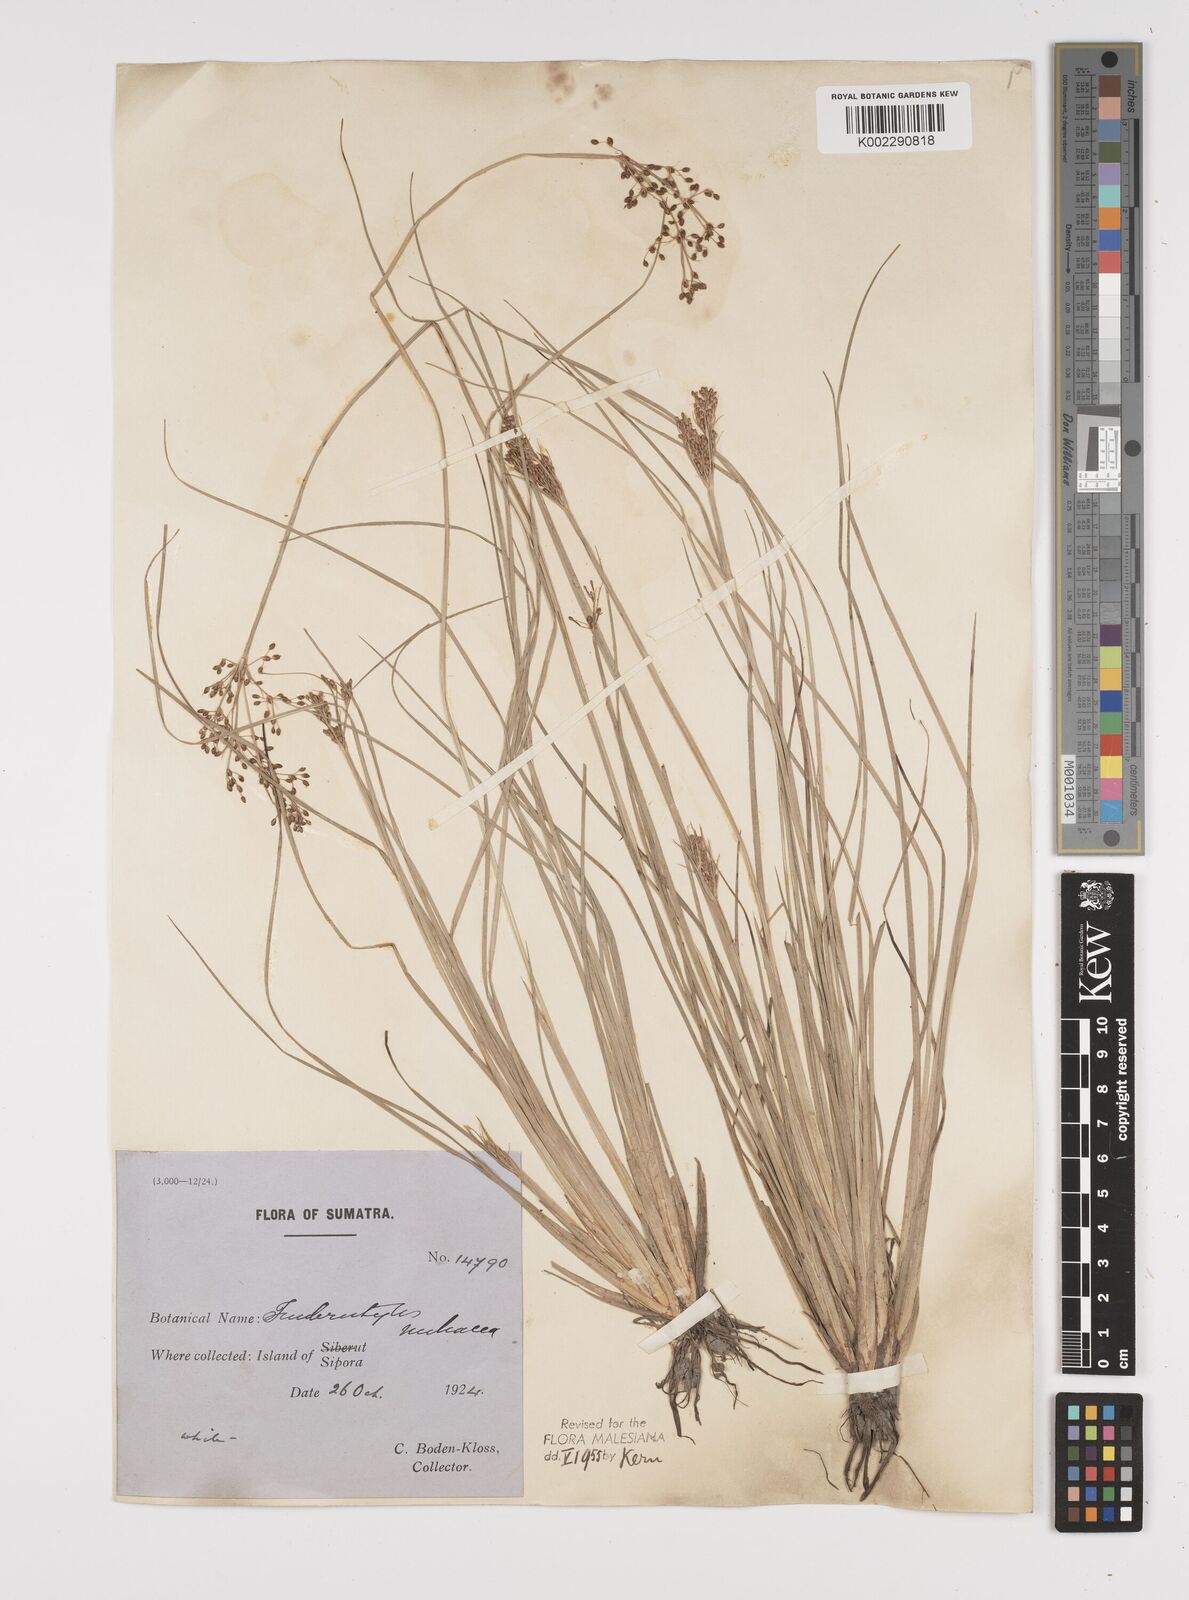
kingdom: Plantae
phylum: Tracheophyta
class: Liliopsida
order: Poales
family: Cyperaceae
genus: Fimbristylis
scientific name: Fimbristylis littoralis
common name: Fimbry
